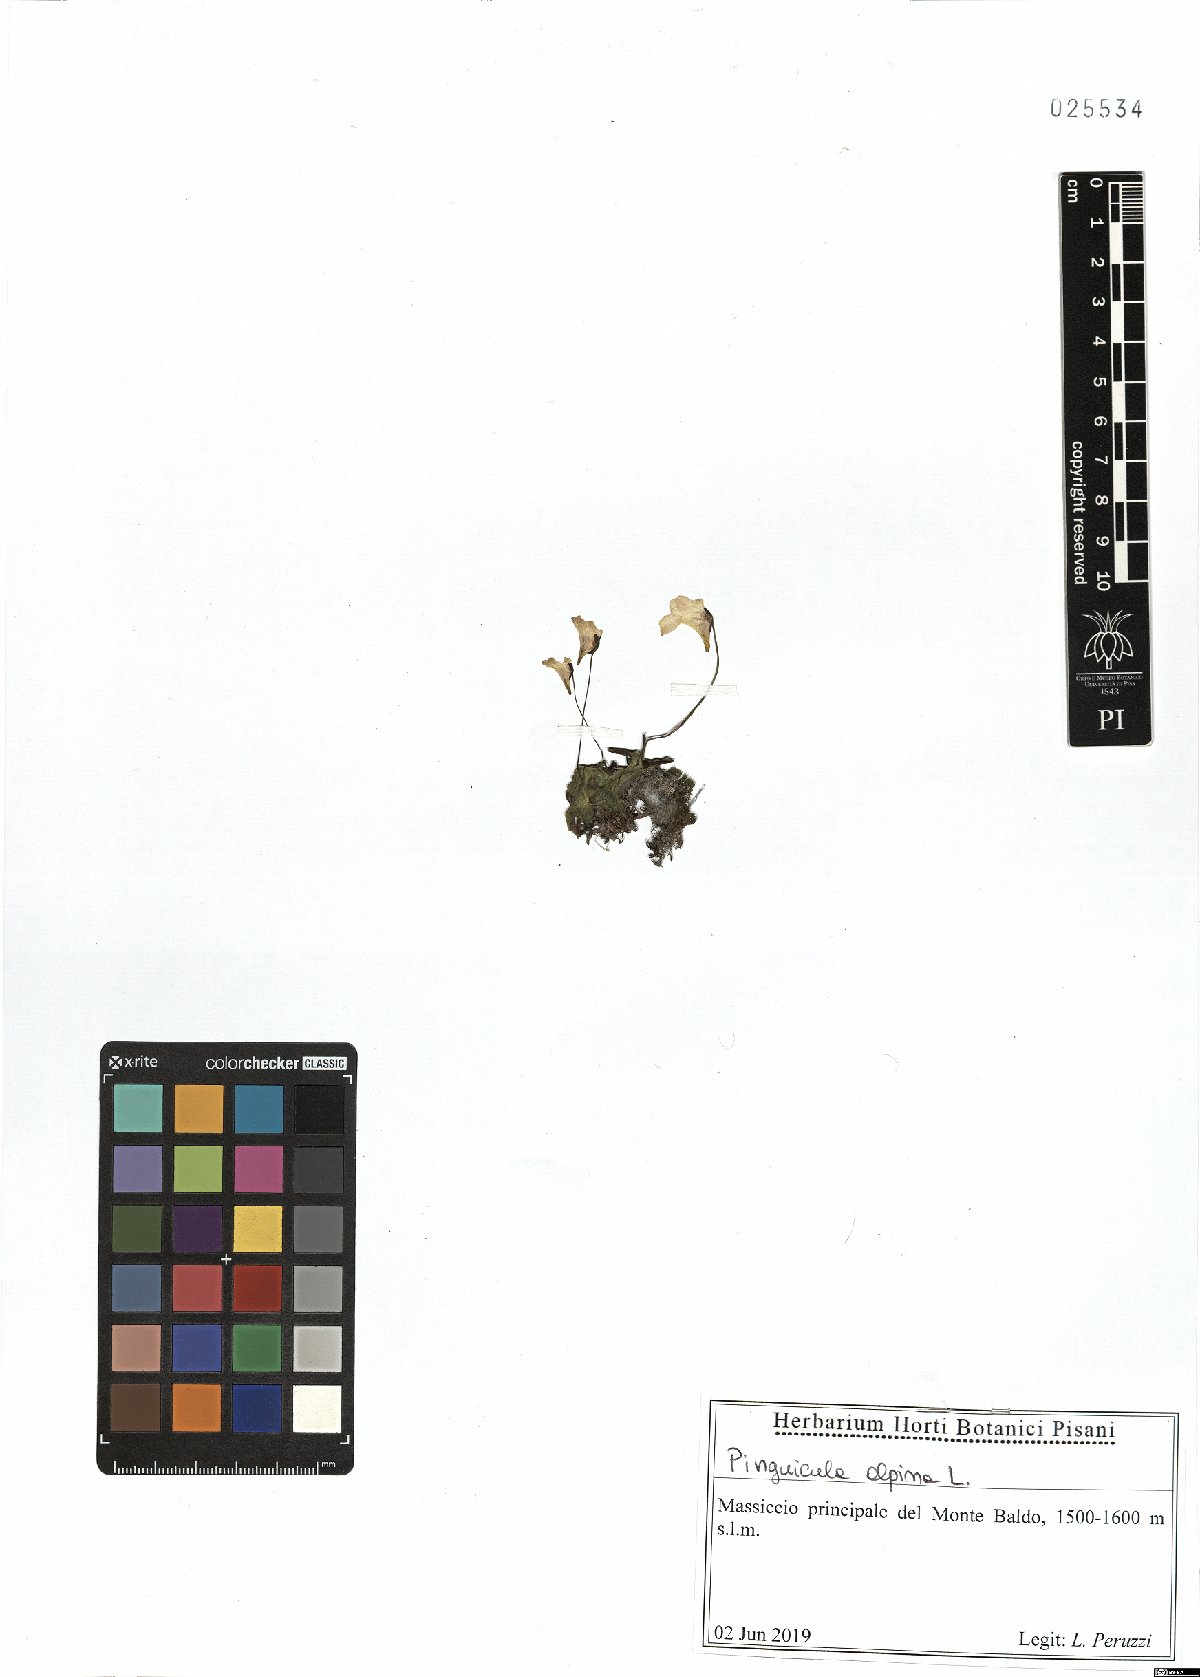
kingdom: Plantae
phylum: Tracheophyta
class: Magnoliopsida
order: Lamiales
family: Lentibulariaceae
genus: Pinguicula
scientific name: Pinguicula alpina
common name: Alpine butterwort
